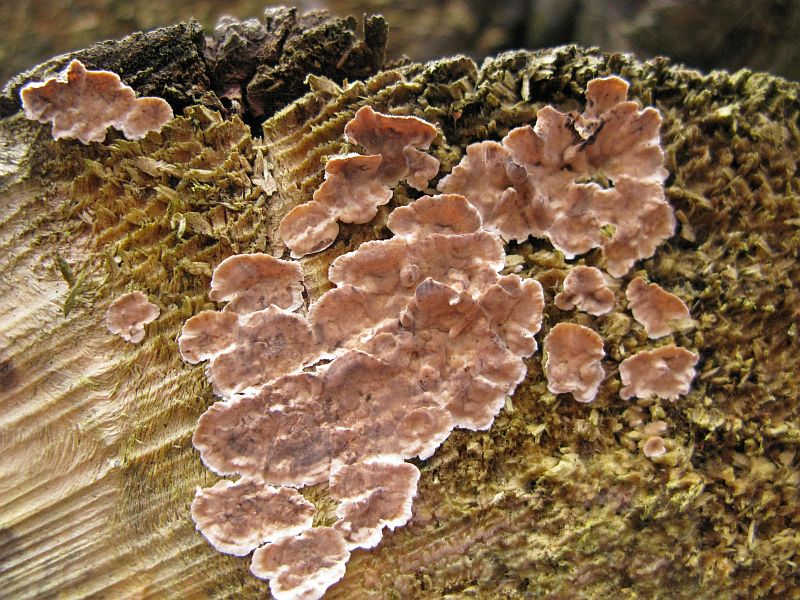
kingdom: Fungi
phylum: Basidiomycota
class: Agaricomycetes
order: Russulales
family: Echinodontiaceae
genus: Amylostereum
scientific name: Amylostereum chailletii
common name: gran-lædersvamp
